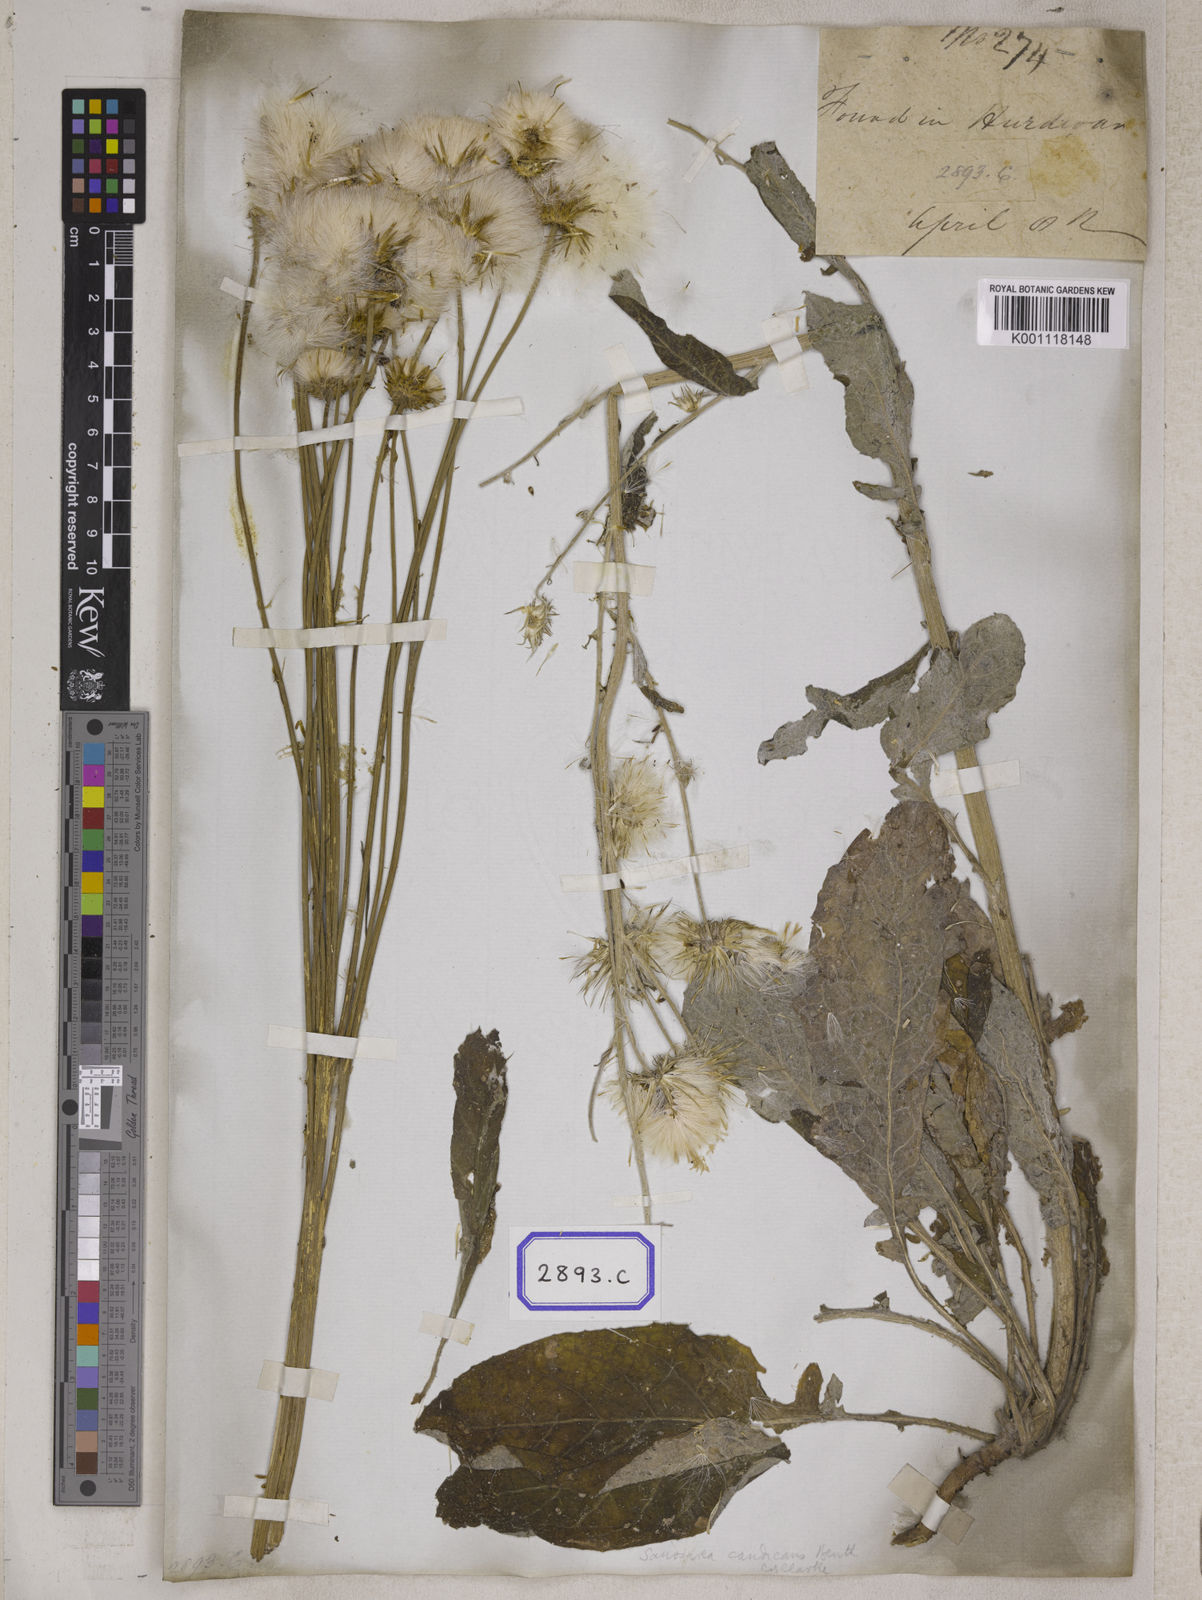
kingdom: Plantae
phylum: Tracheophyta
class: Magnoliopsida
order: Asterales
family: Asteraceae
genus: Jurinea
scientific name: Jurinea heteromalla
